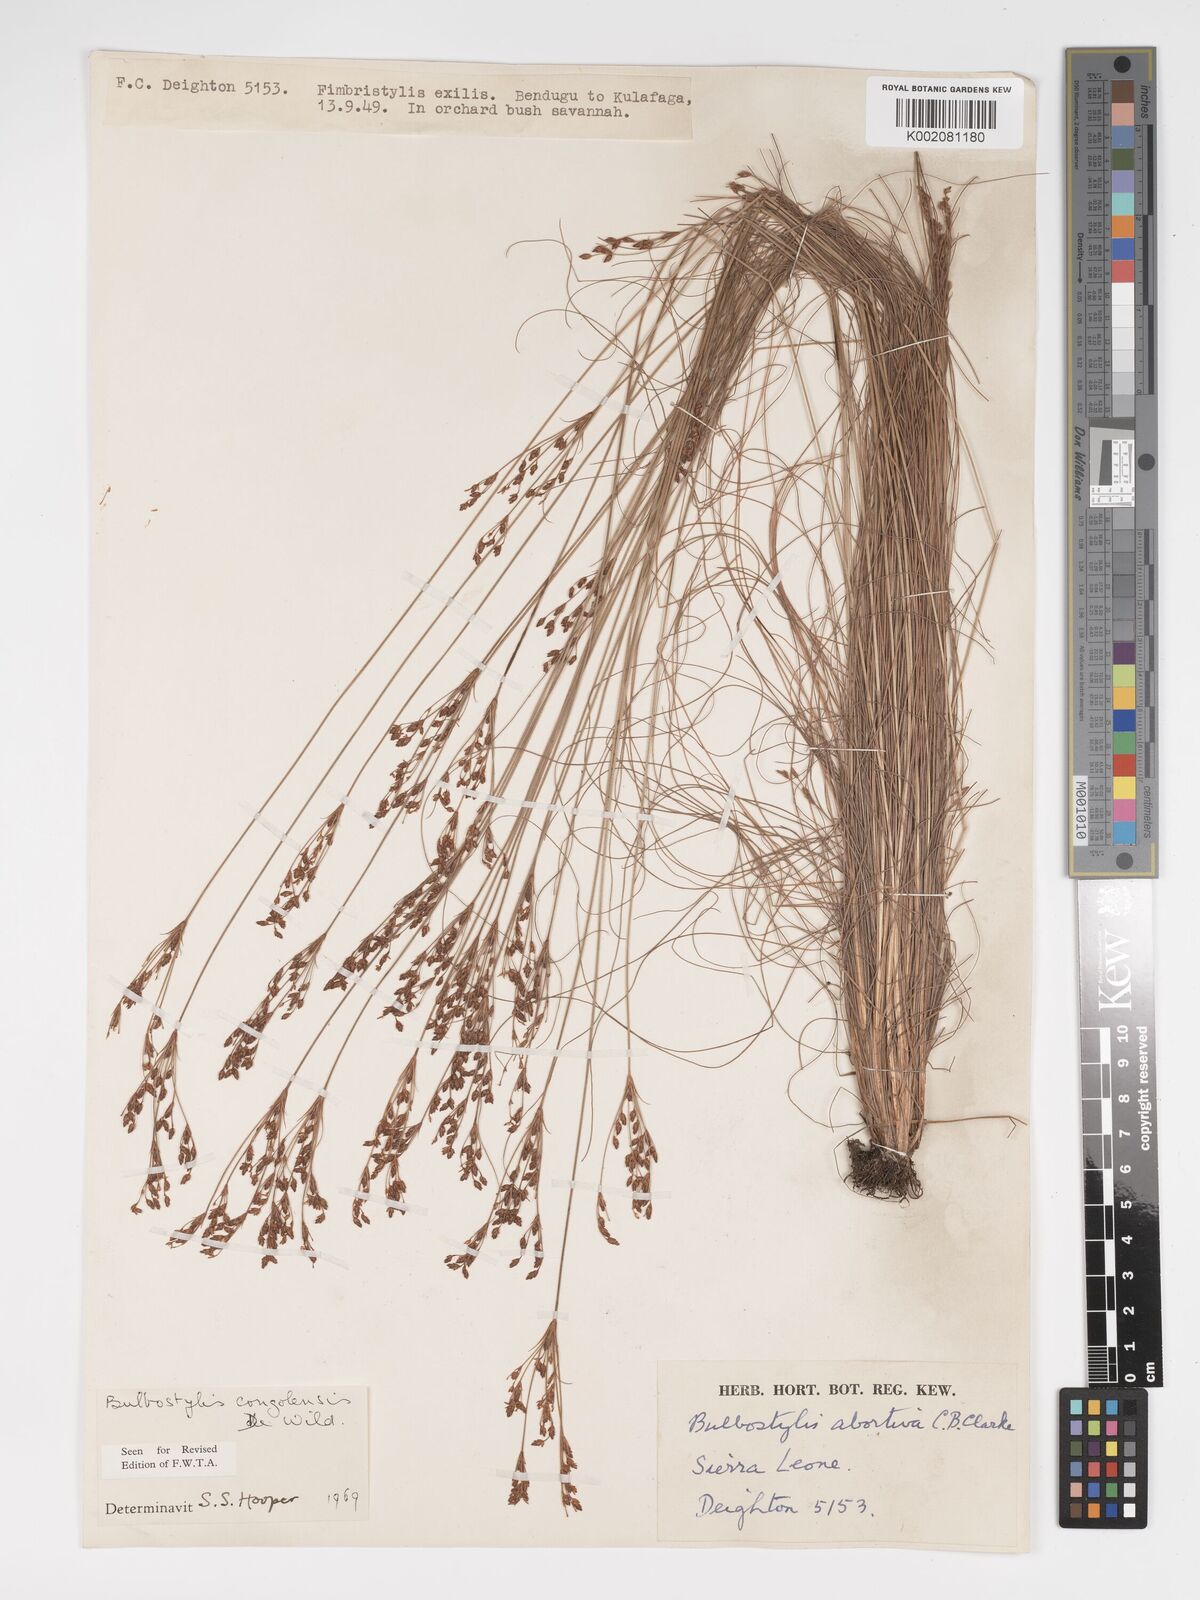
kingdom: Plantae
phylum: Tracheophyta
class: Liliopsida
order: Poales
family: Cyperaceae
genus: Bulbostylis
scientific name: Bulbostylis congolensis
